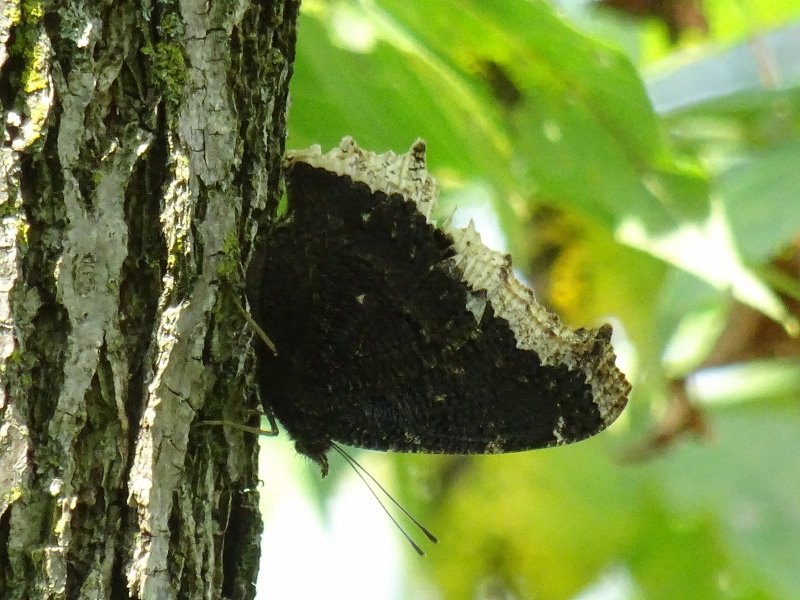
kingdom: Animalia
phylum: Arthropoda
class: Insecta
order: Lepidoptera
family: Nymphalidae
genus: Nymphalis
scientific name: Nymphalis antiopa
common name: Mourning Cloak
